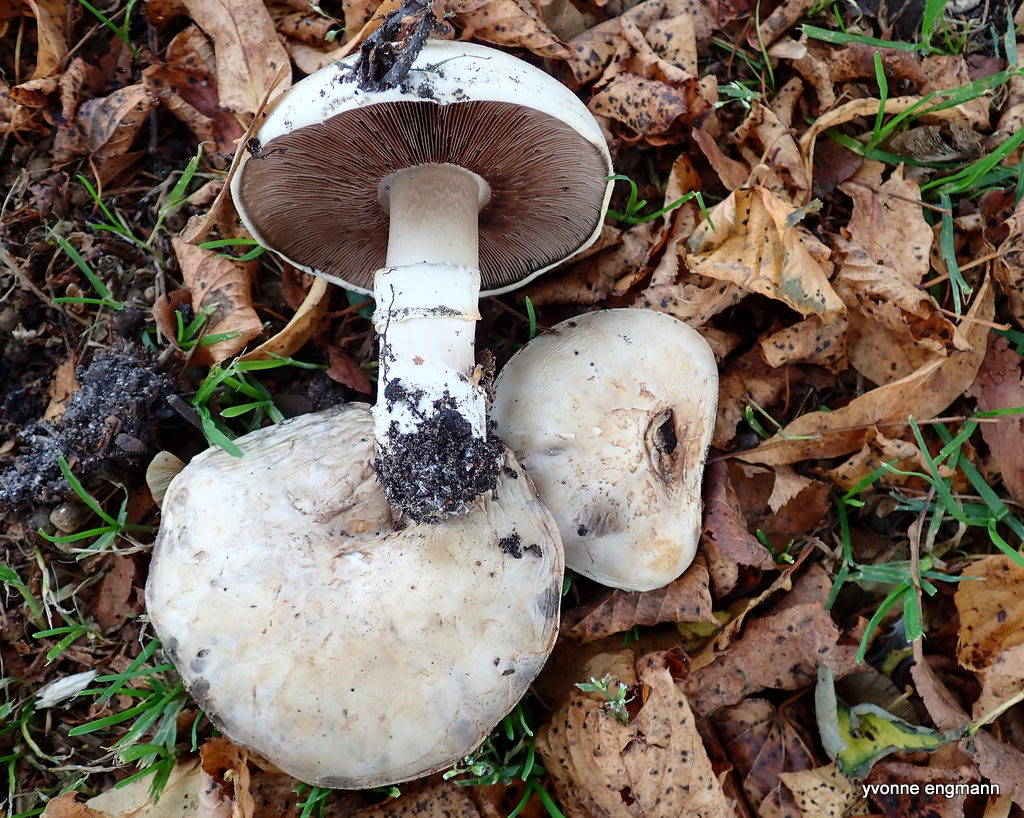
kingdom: Fungi
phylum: Basidiomycota
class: Agaricomycetes
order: Agaricales
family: Agaricaceae
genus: Agaricus
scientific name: Agaricus bitorquis
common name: vej-champignon
